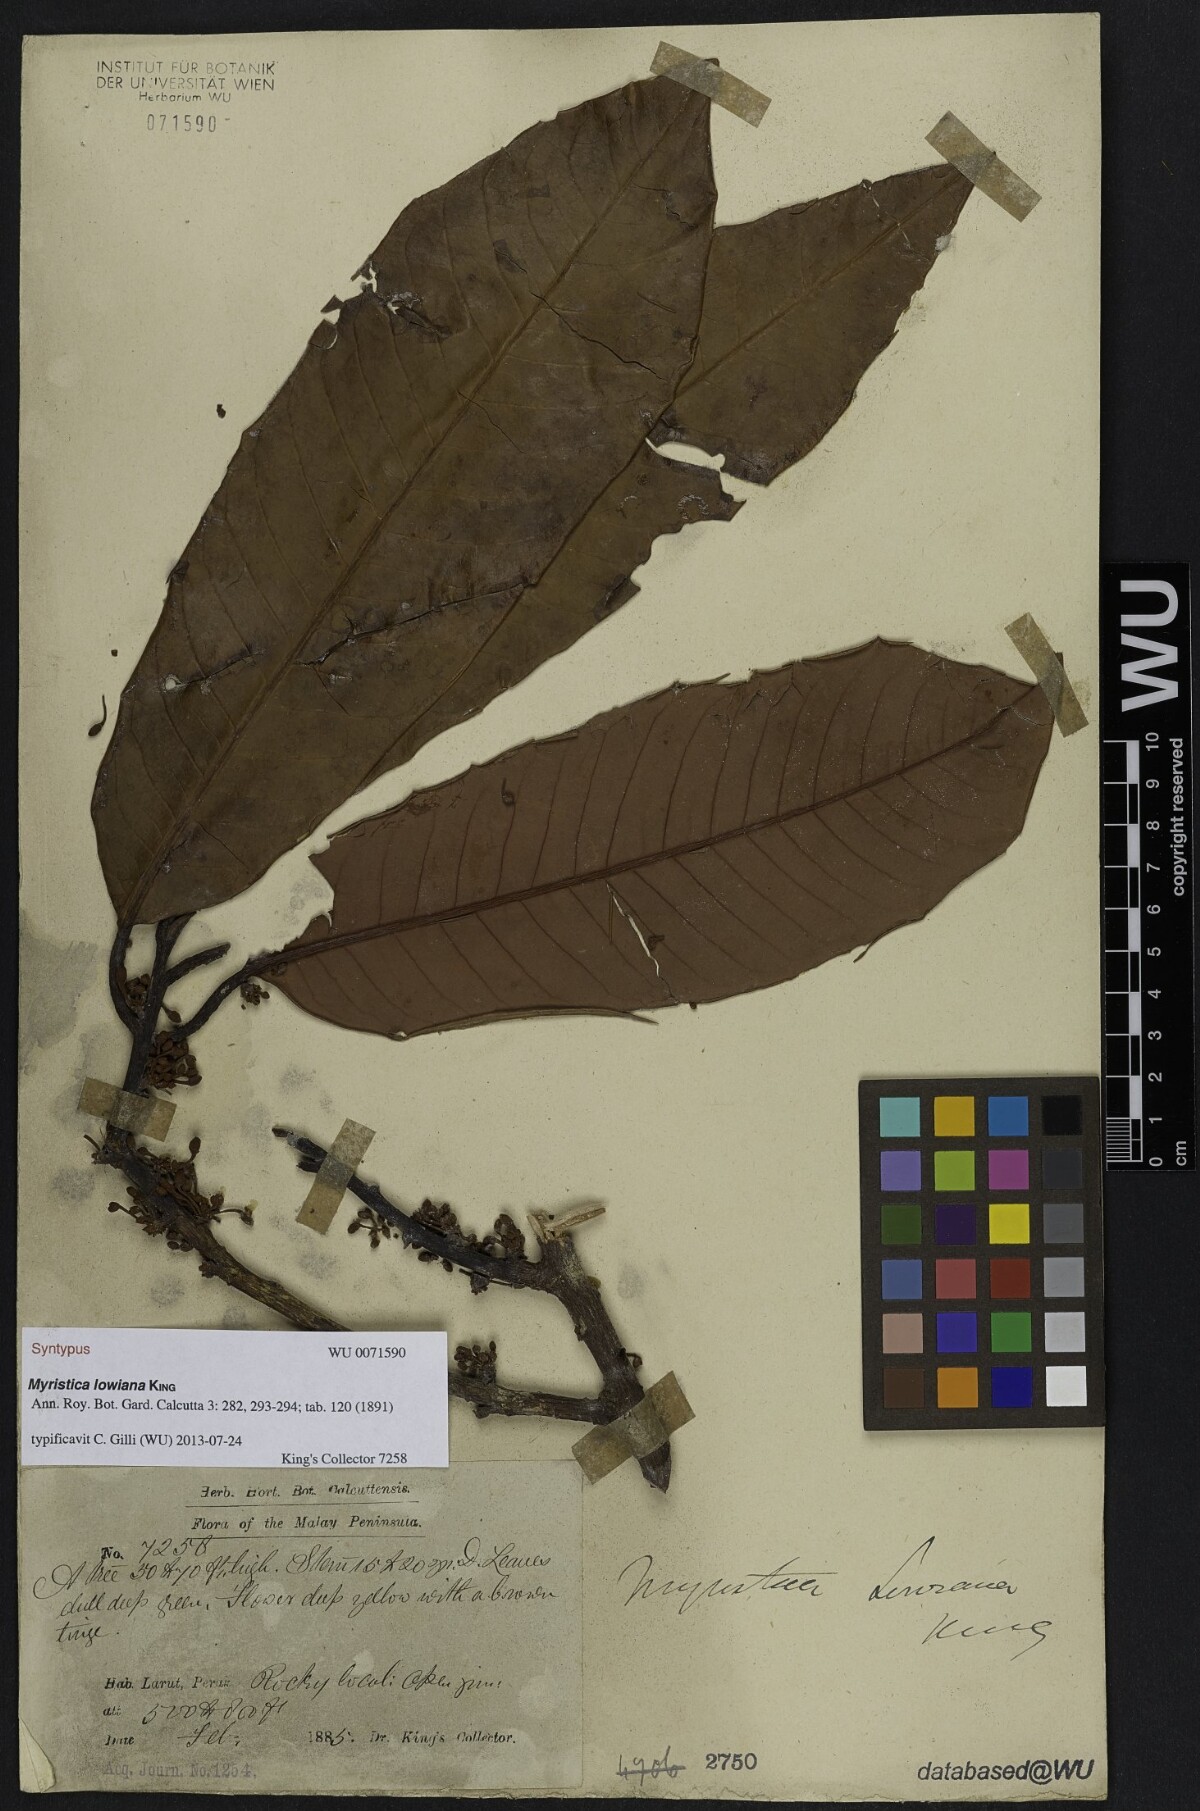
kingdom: Plantae
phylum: Tracheophyta
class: Magnoliopsida
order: Magnoliales
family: Myristicaceae
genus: Myristica
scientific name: Myristica lowiana
